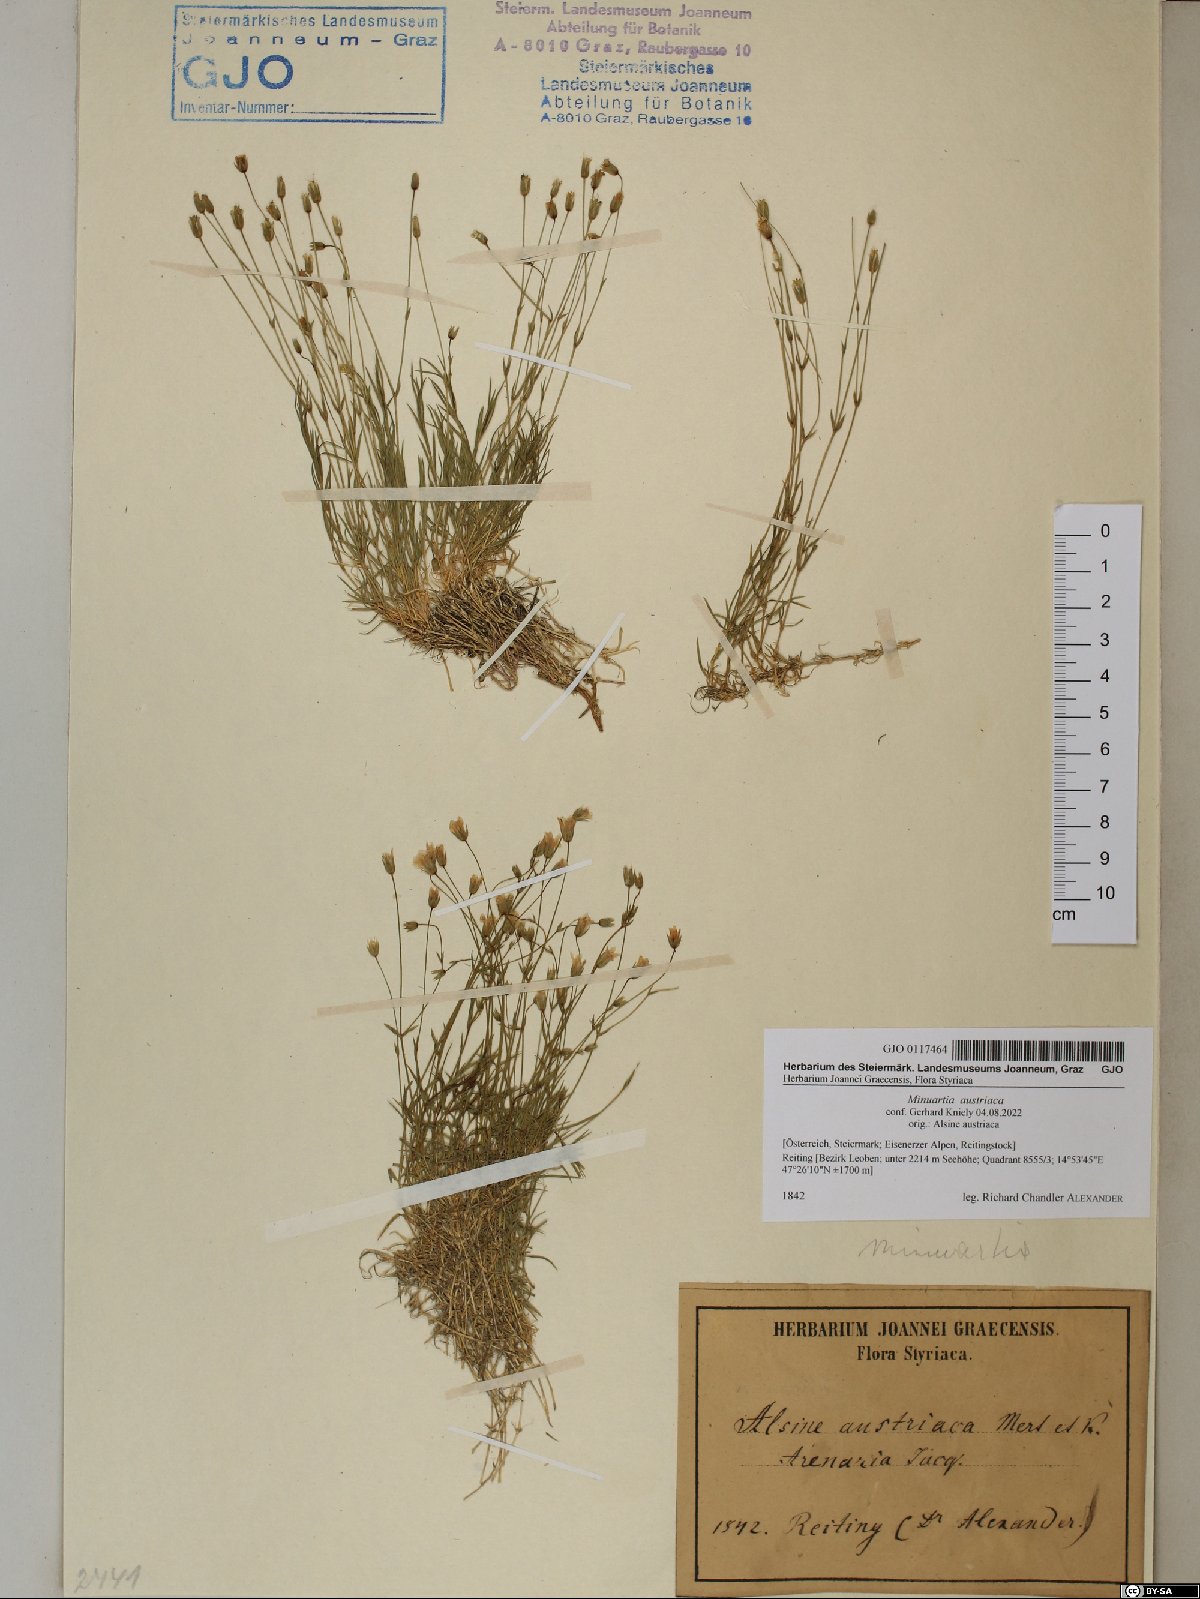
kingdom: Plantae
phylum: Tracheophyta
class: Magnoliopsida
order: Caryophyllales
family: Caryophyllaceae
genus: Sabulina
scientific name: Sabulina austriaca
